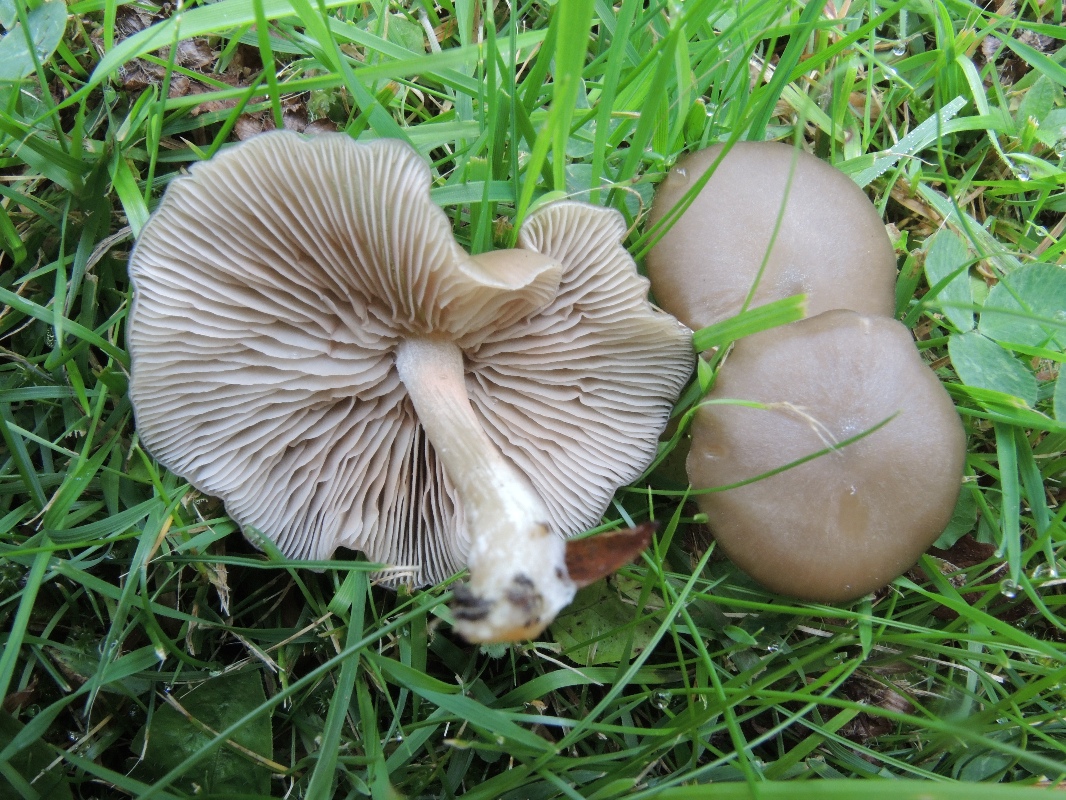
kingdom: Fungi
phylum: Basidiomycota
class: Agaricomycetes
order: Agaricales
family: Entolomataceae
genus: Entoloma
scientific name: Entoloma
